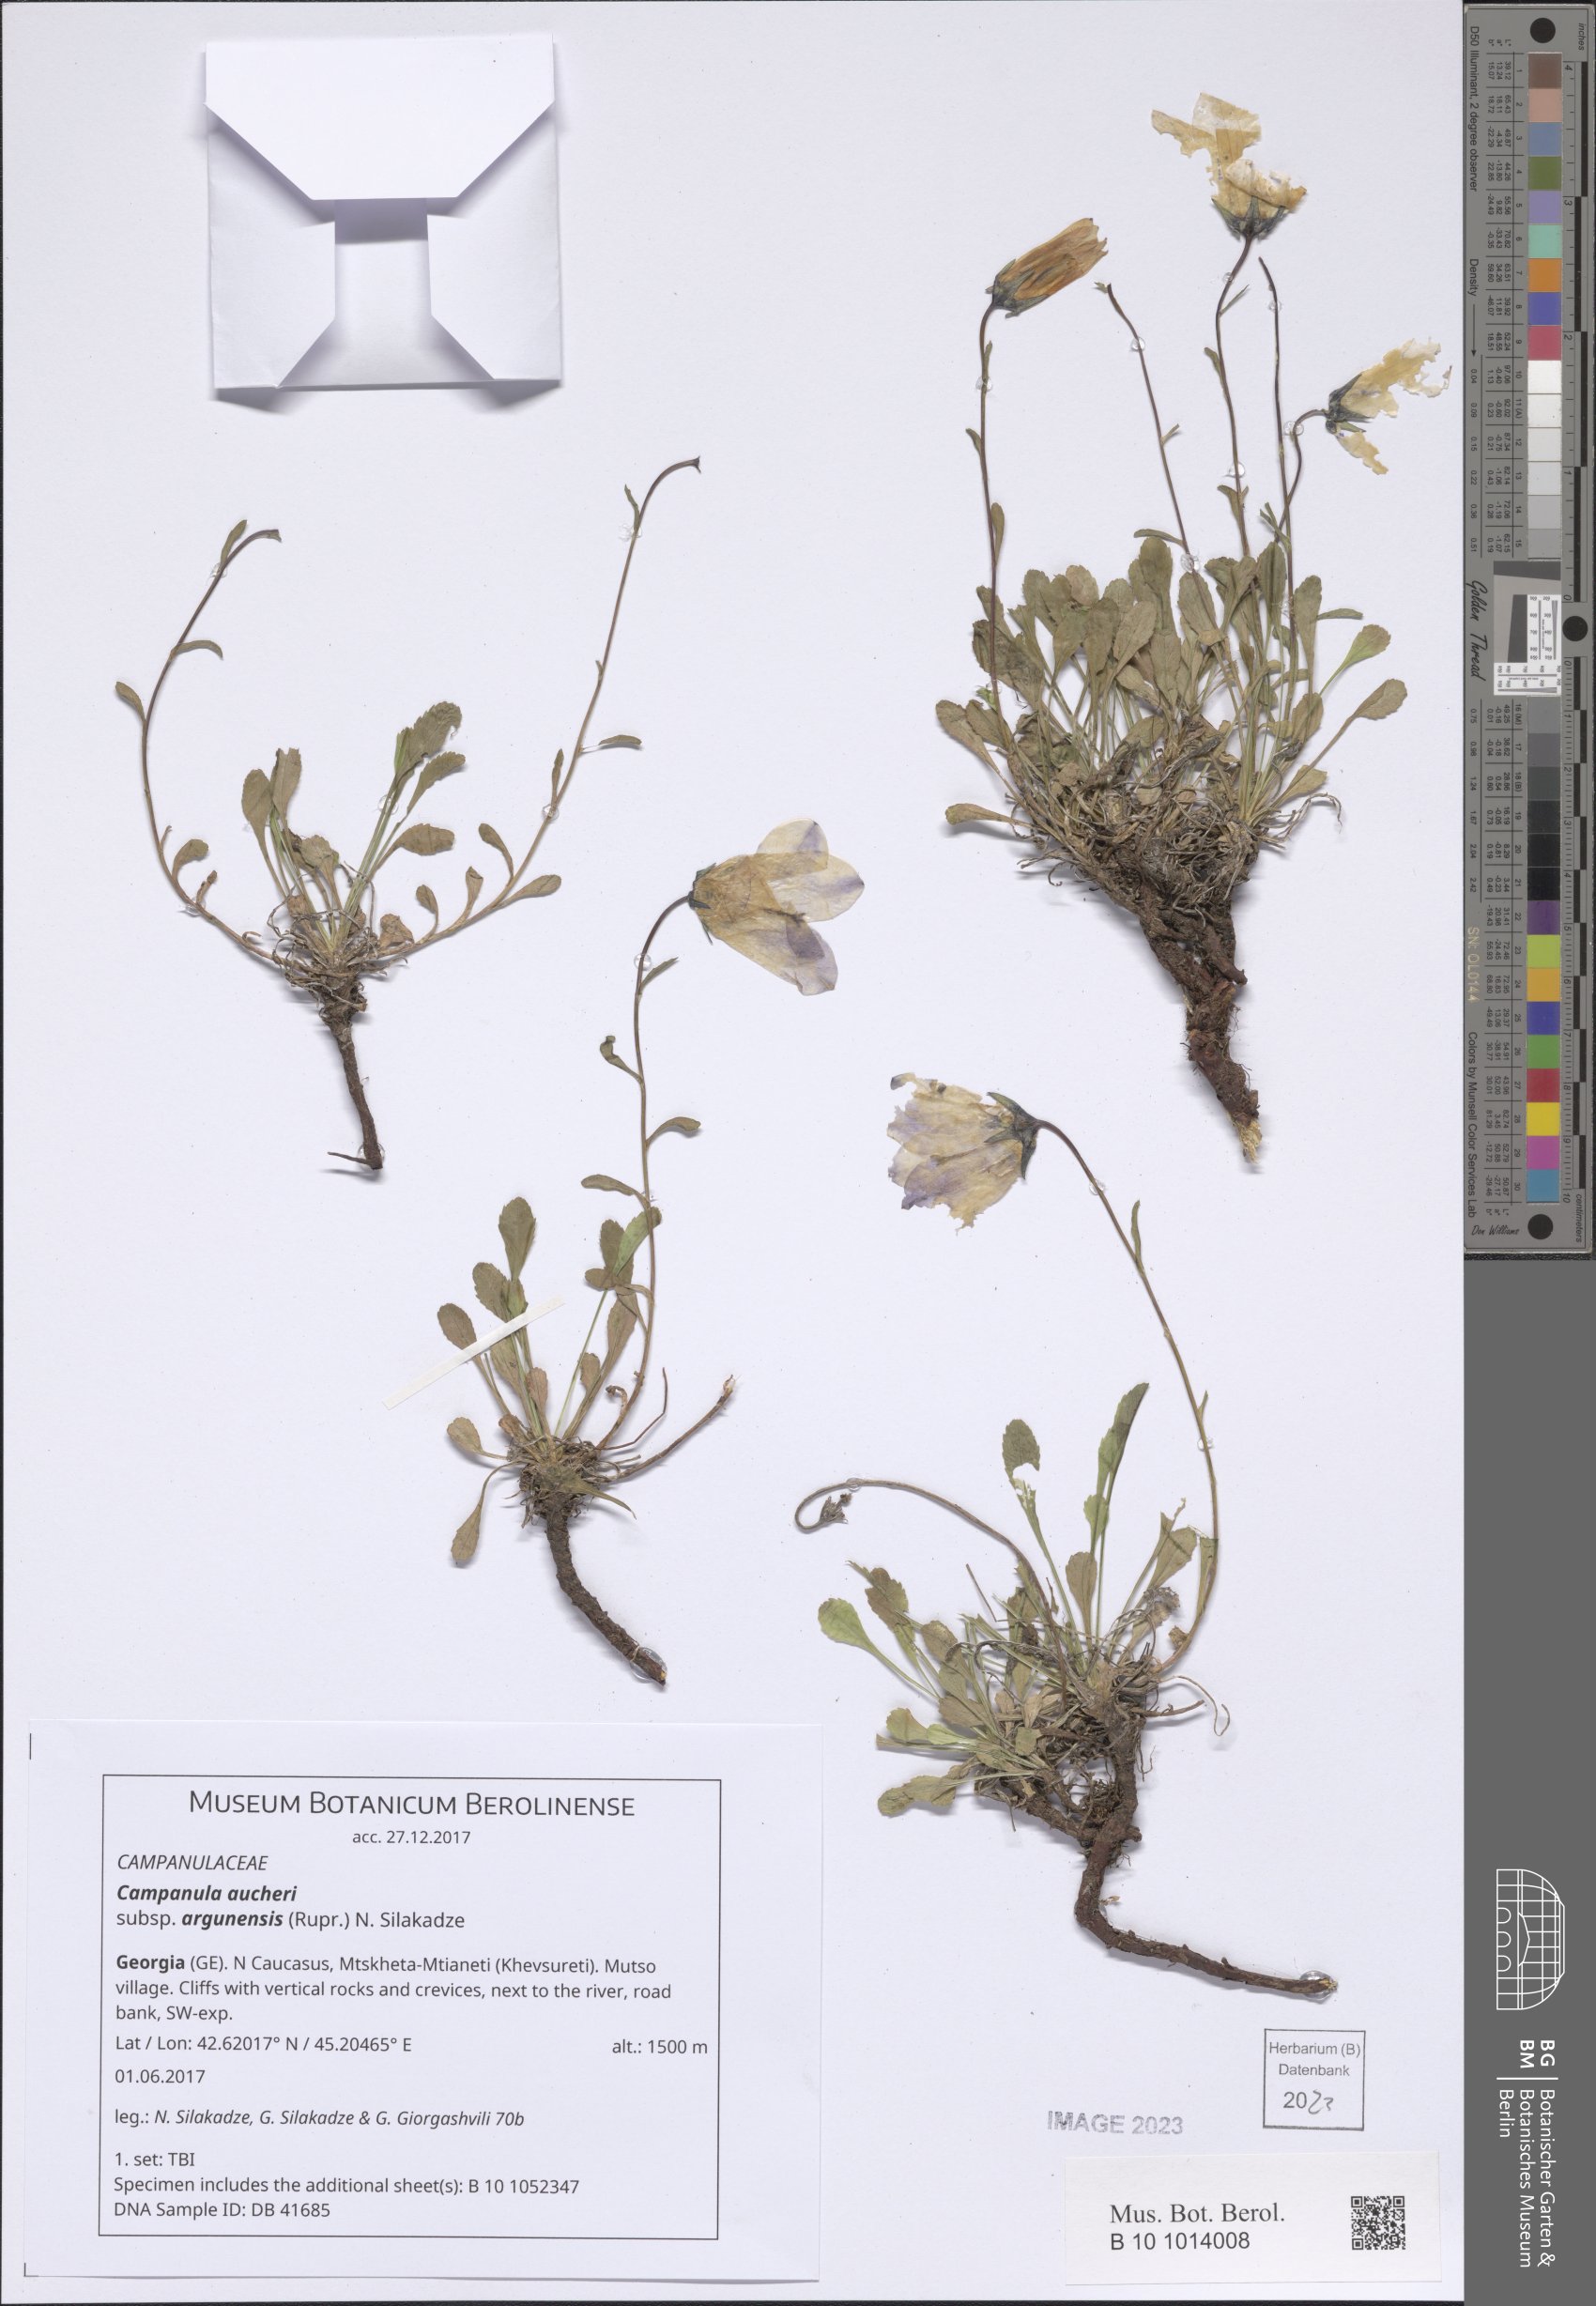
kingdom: Plantae
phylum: Tracheophyta
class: Magnoliopsida
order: Asterales
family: Campanulaceae
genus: Campanula
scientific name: Campanula saxifraga
